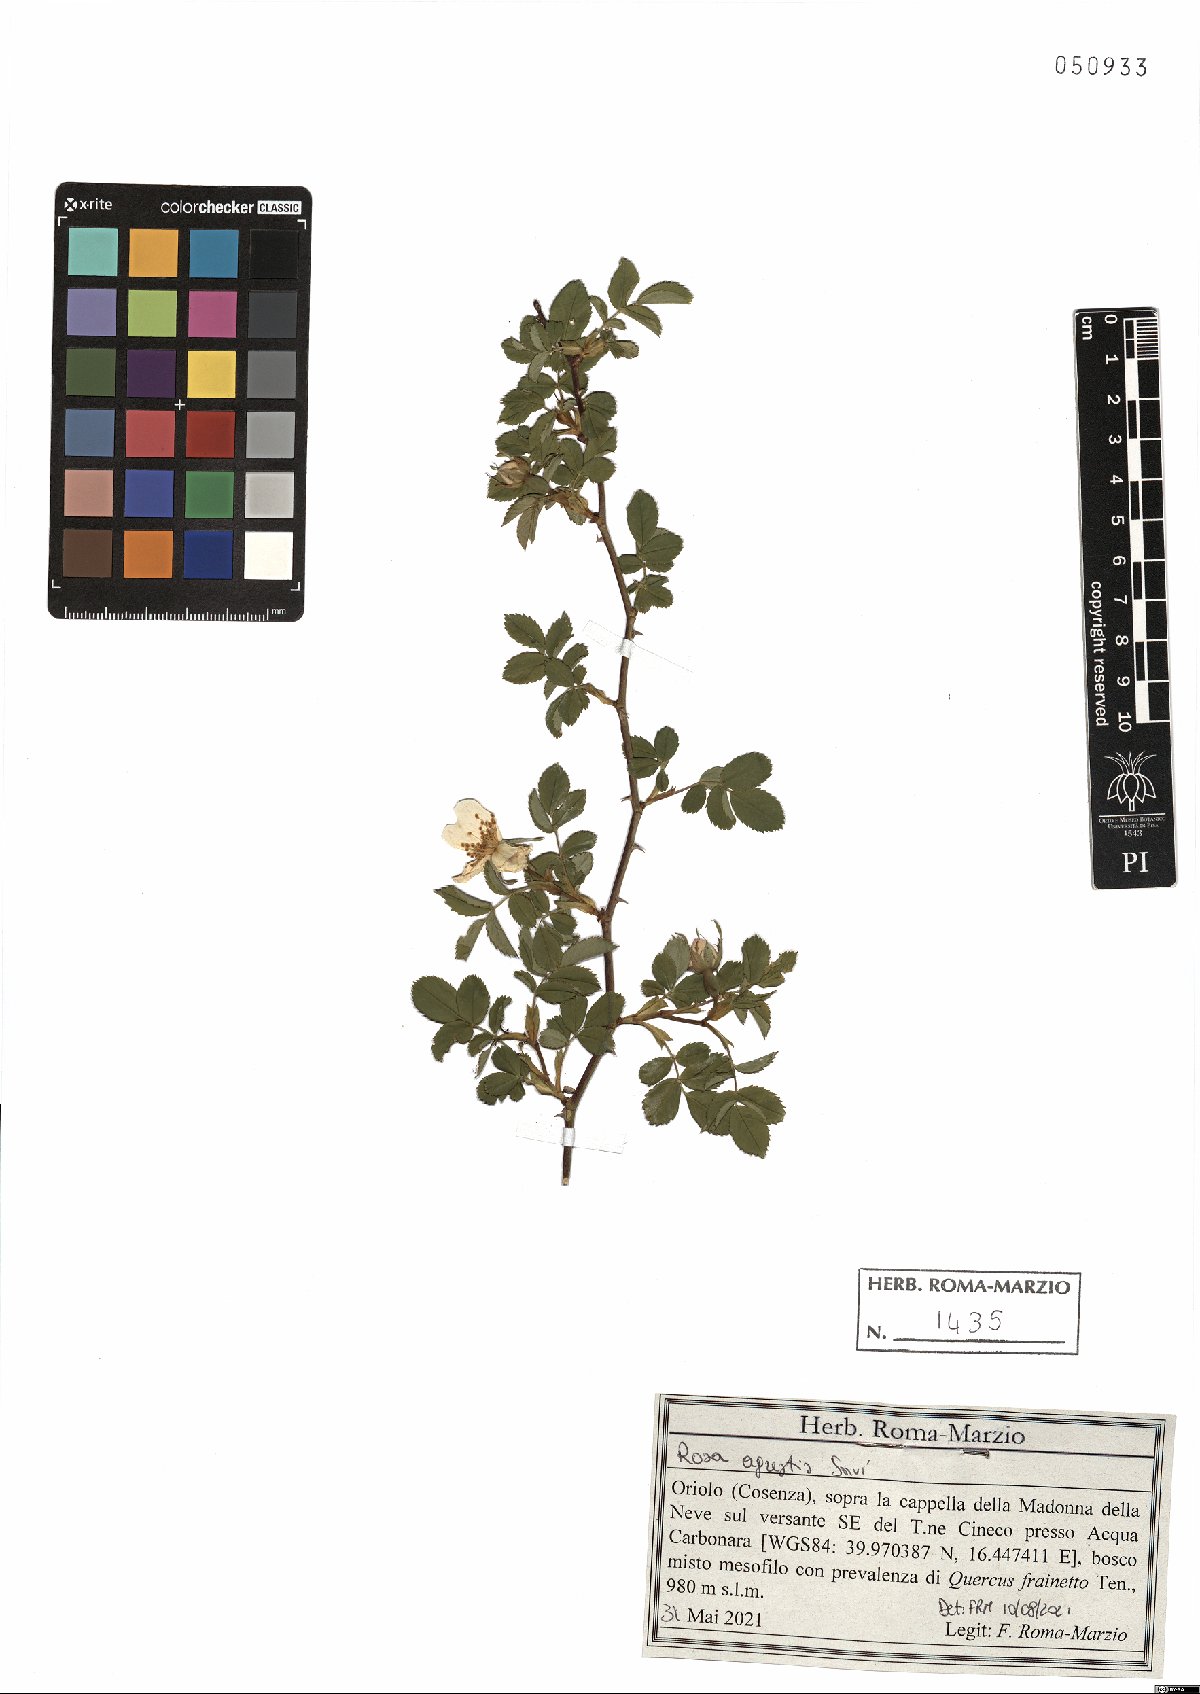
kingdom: Plantae
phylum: Tracheophyta
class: Magnoliopsida
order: Rosales
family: Rosaceae
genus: Rosa
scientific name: Rosa agrestis
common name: Fieldbriar
